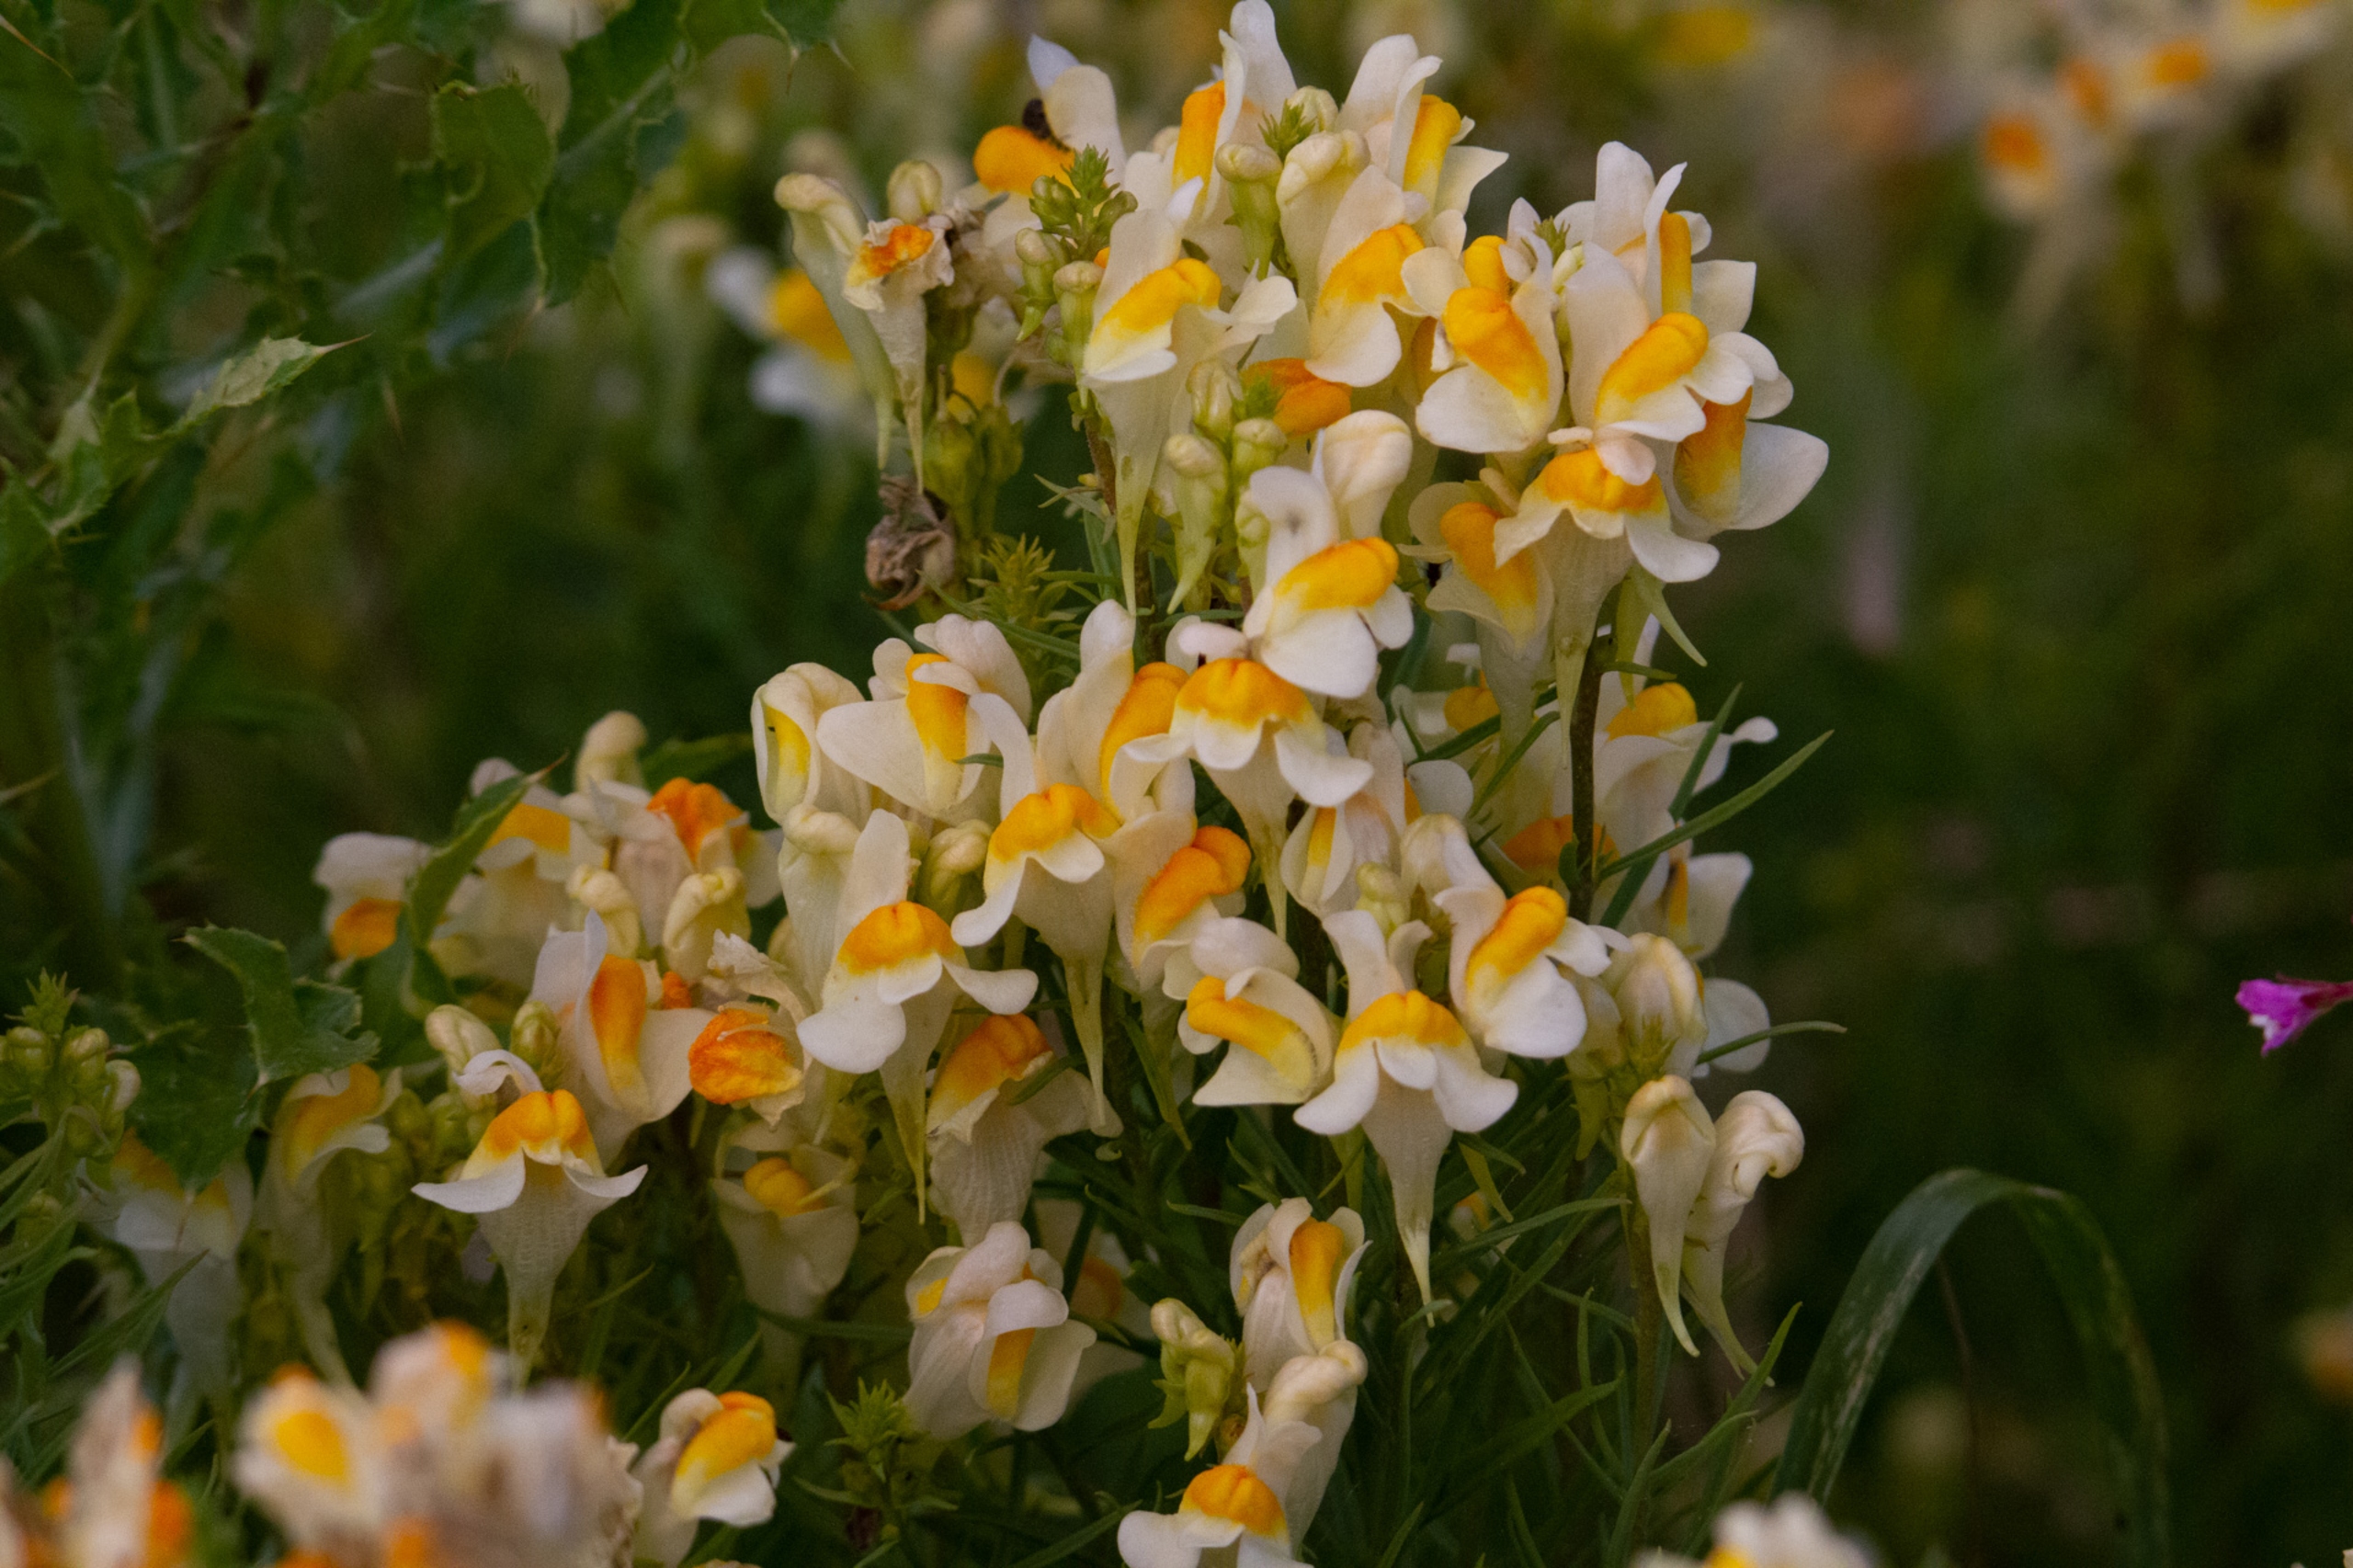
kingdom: Plantae
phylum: Tracheophyta
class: Magnoliopsida
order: Lamiales
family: Plantaginaceae
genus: Linaria
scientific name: Linaria vulgaris
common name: Almindelig torskemund
